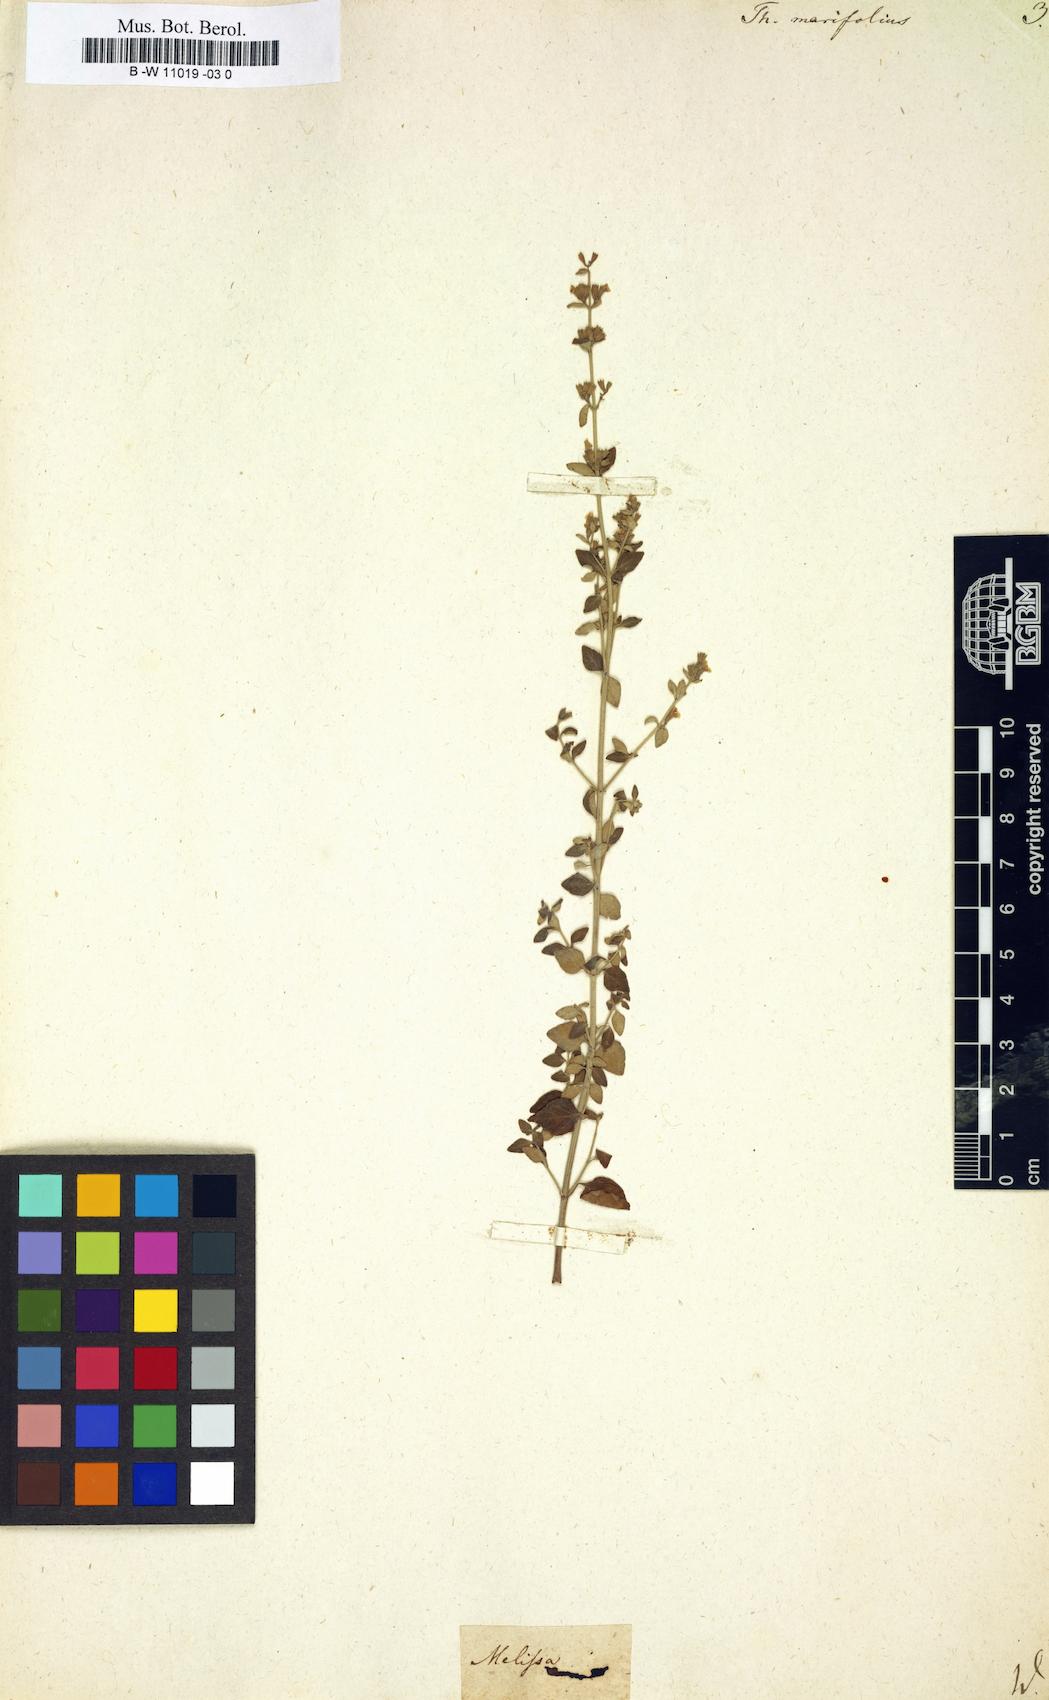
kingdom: Plantae
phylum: Tracheophyta
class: Magnoliopsida
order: Lamiales
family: Lamiaceae
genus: Clinopodium
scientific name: Clinopodium serpyllifolium
